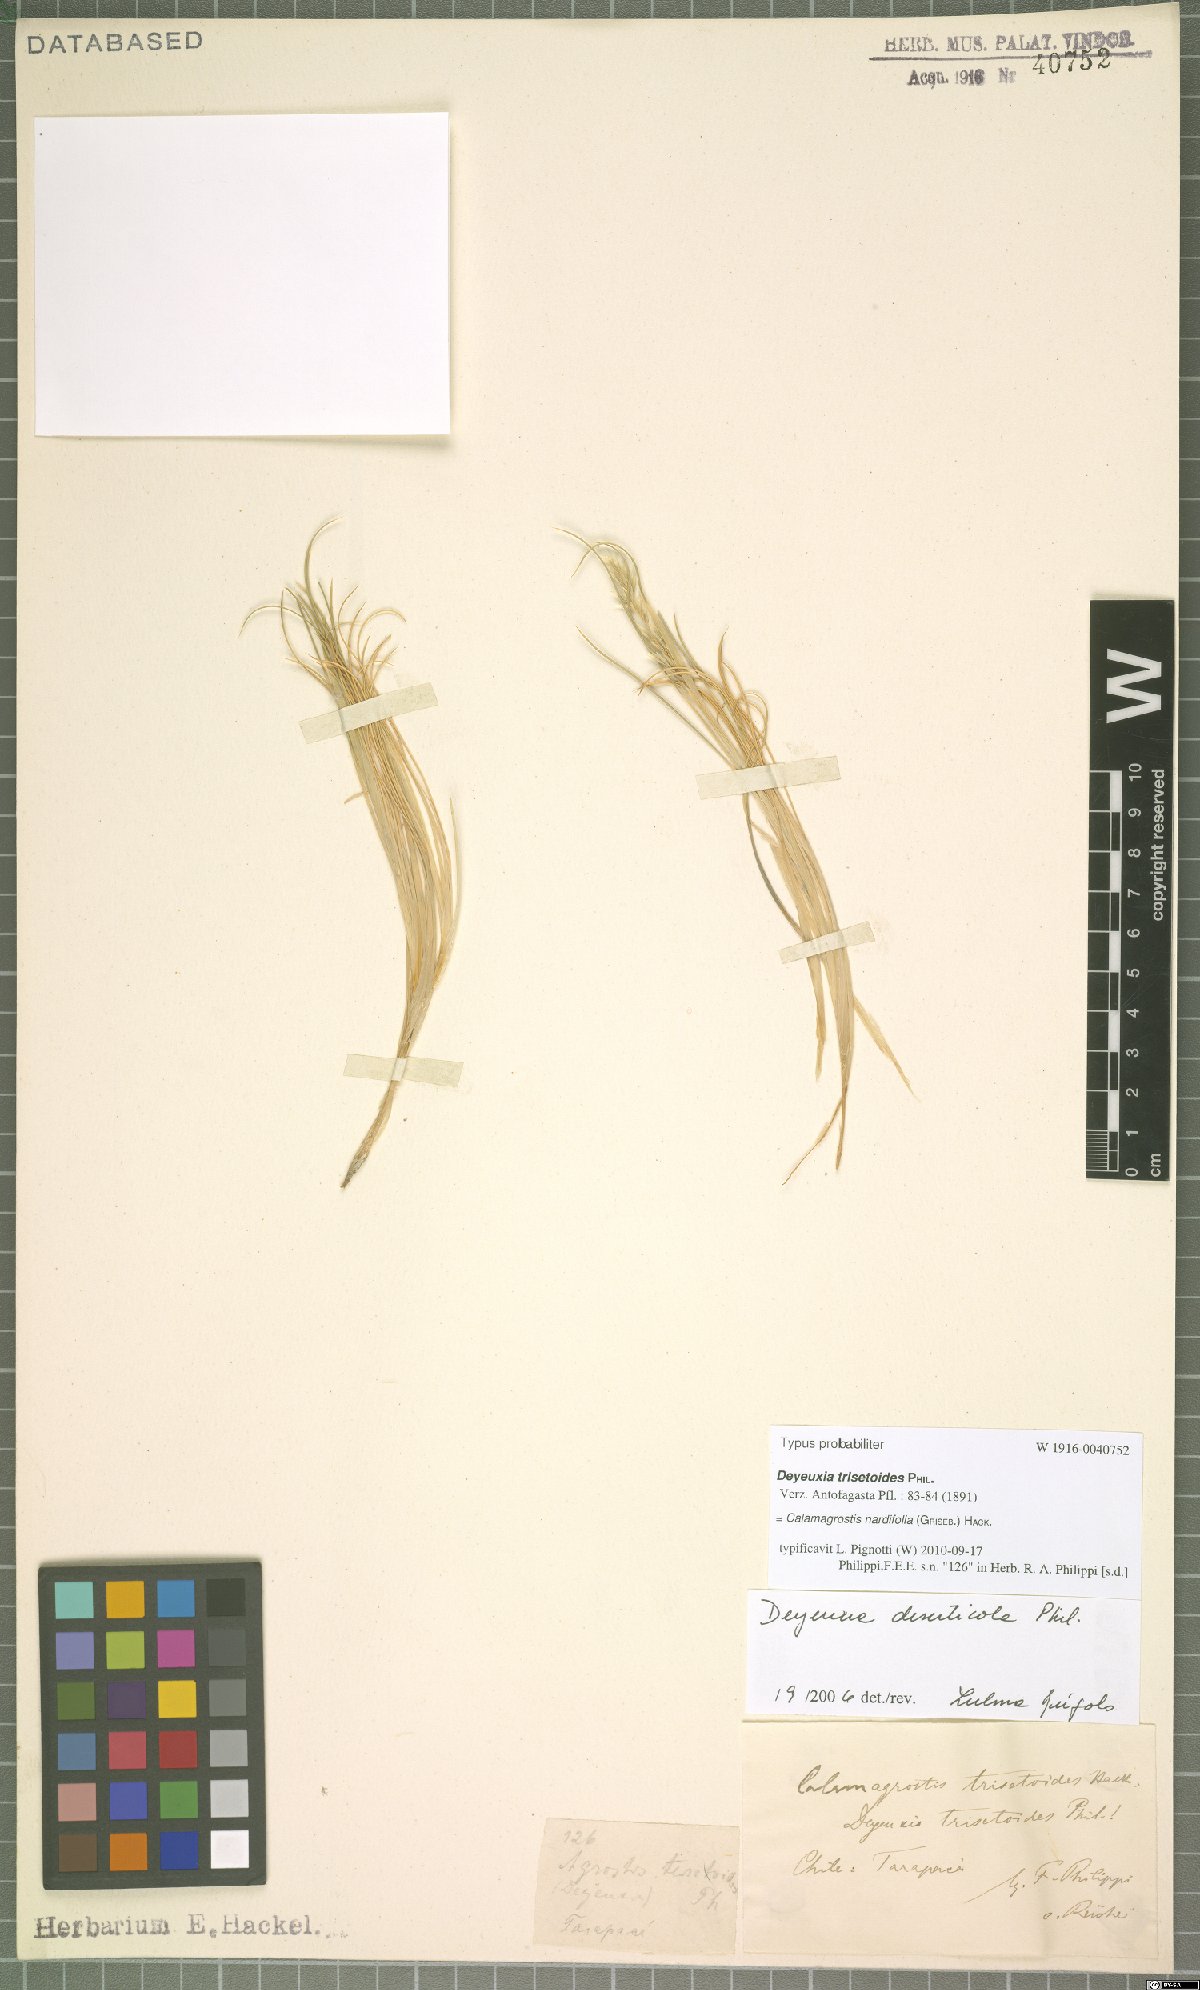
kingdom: Plantae
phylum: Tracheophyta
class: Liliopsida
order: Poales
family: Poaceae
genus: Calamagrostis
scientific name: Calamagrostis nardifolia
